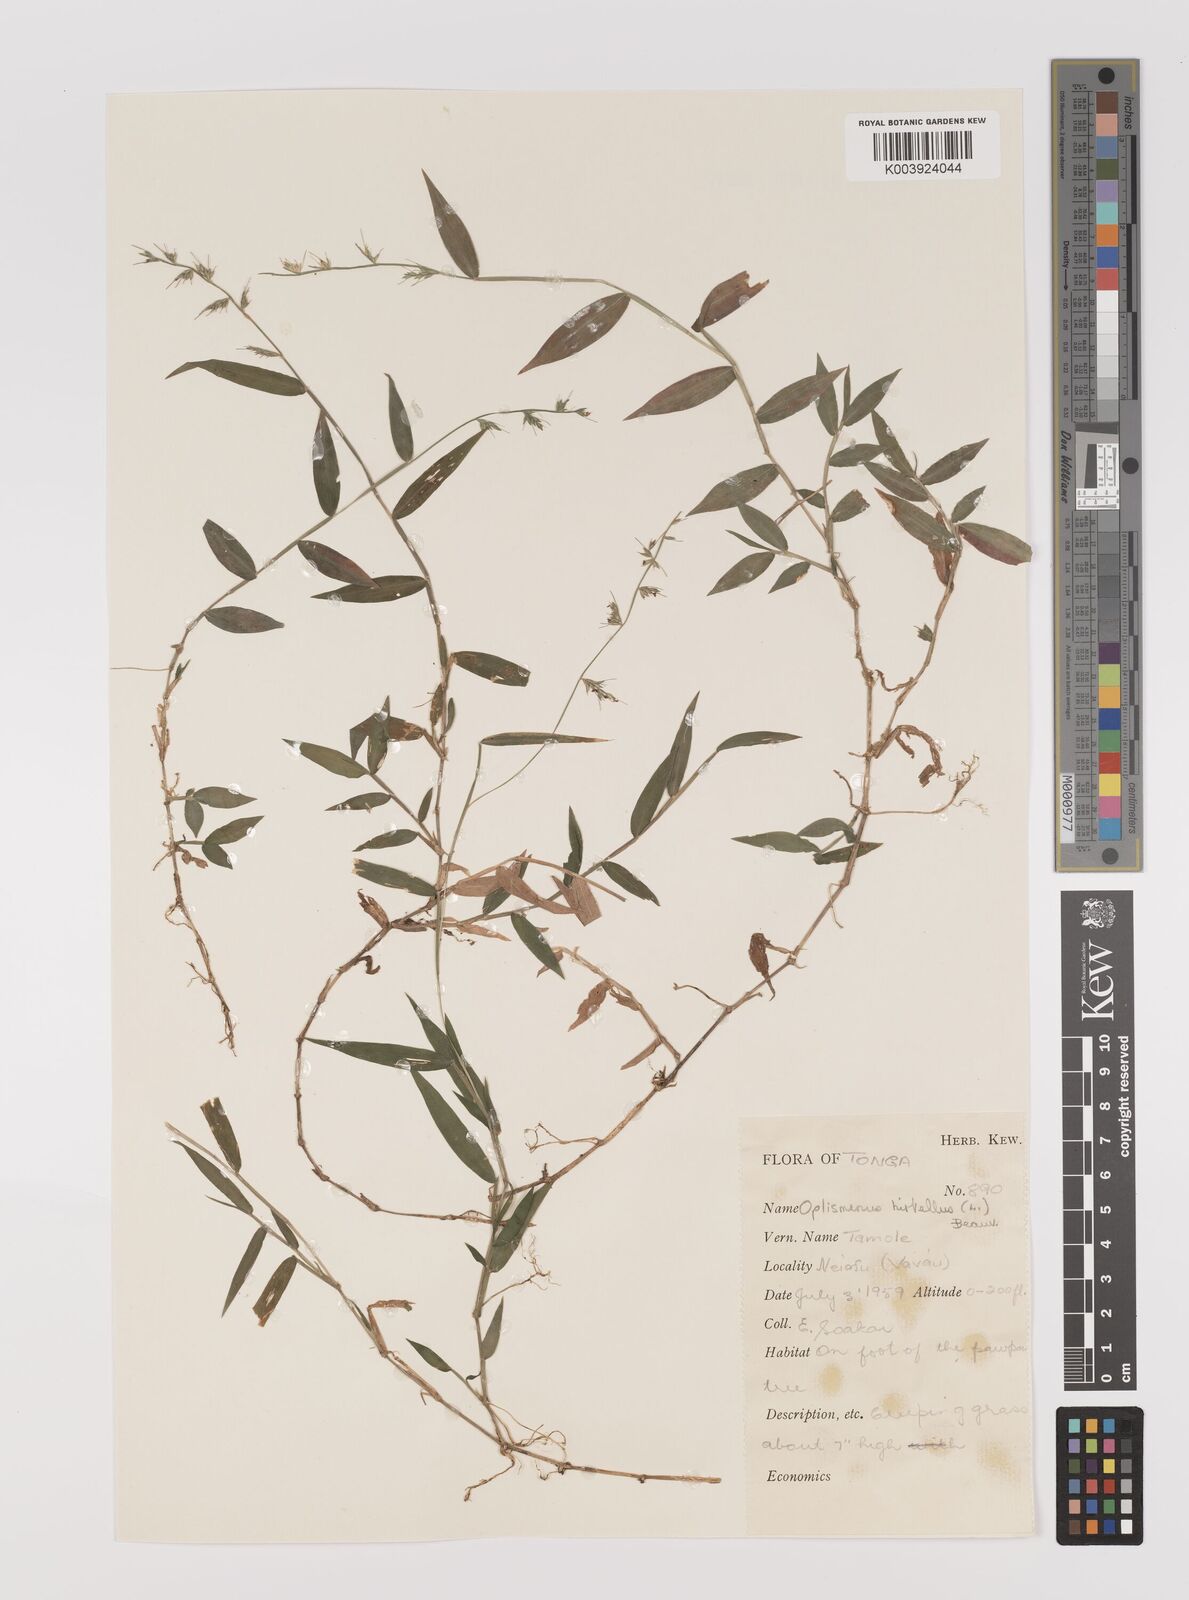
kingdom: Plantae
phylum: Tracheophyta
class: Liliopsida
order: Poales
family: Poaceae
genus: Oplismenus
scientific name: Oplismenus hirtellus
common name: Basketgrass
